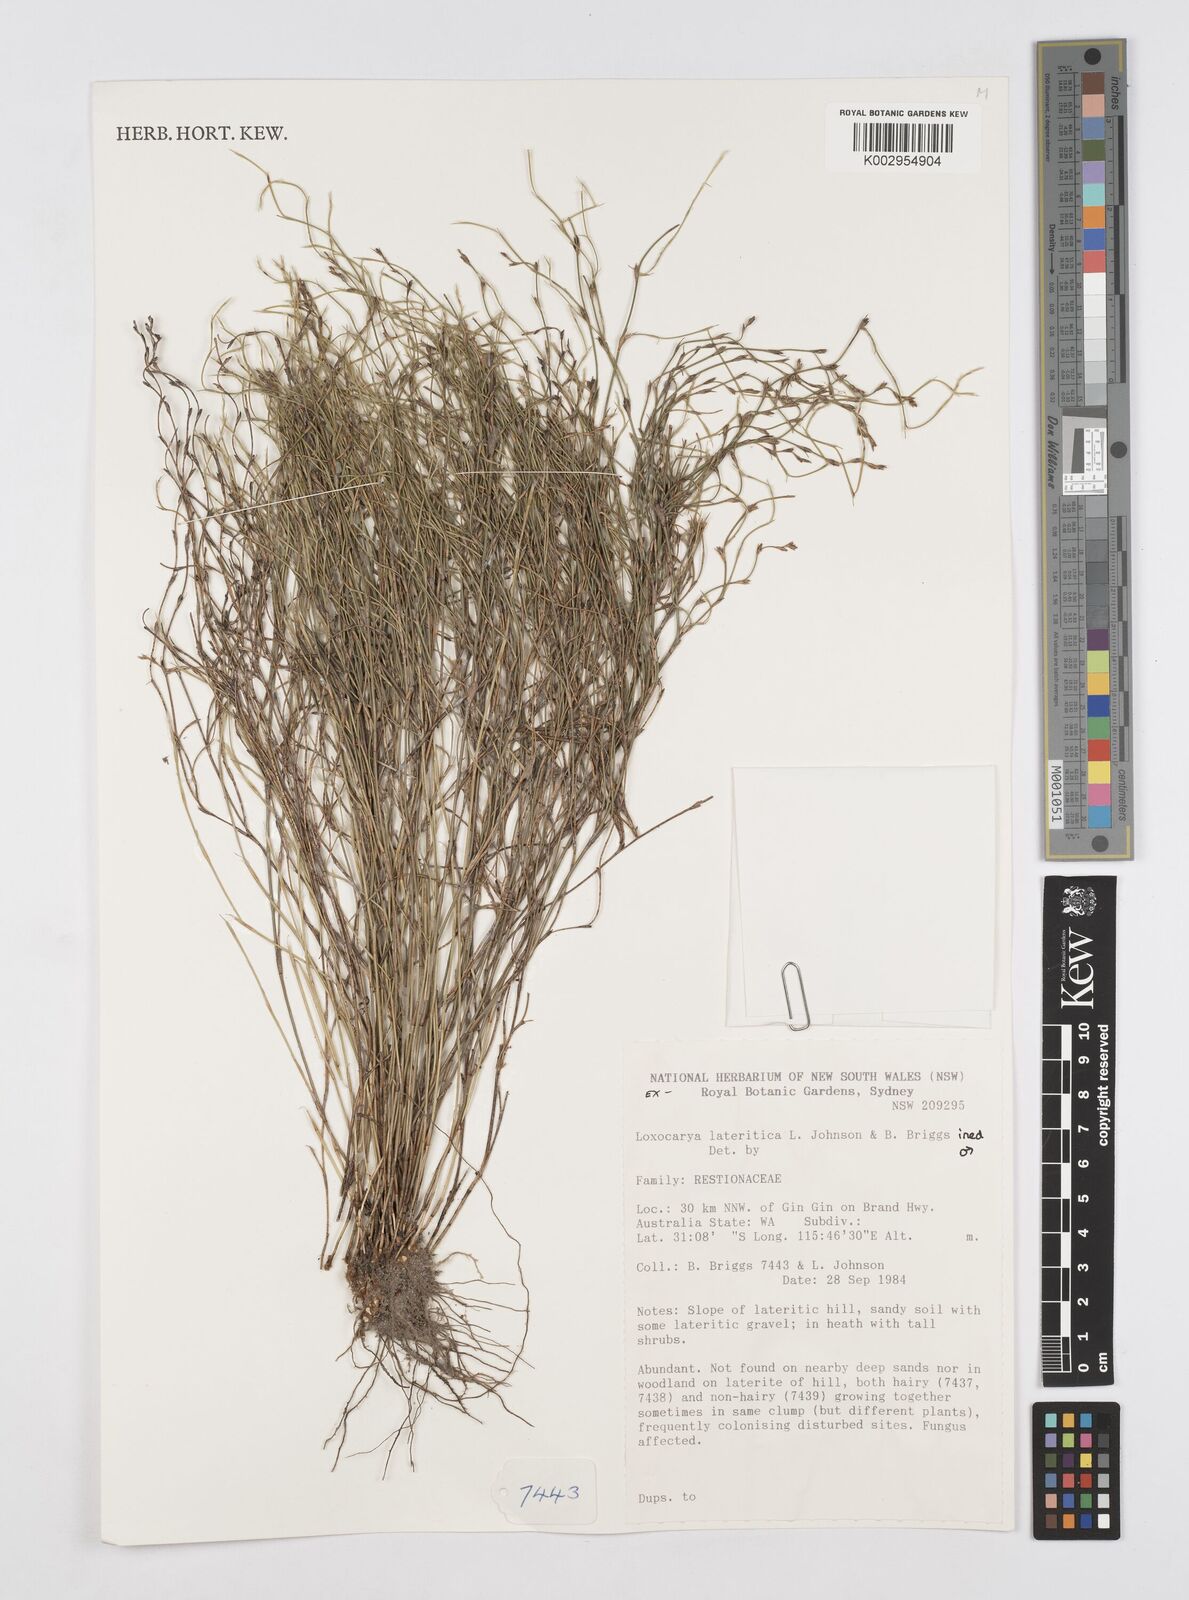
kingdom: Plantae
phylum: Tracheophyta
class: Liliopsida
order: Poales
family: Restionaceae
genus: Desmocladus
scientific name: Desmocladus lateriticus
